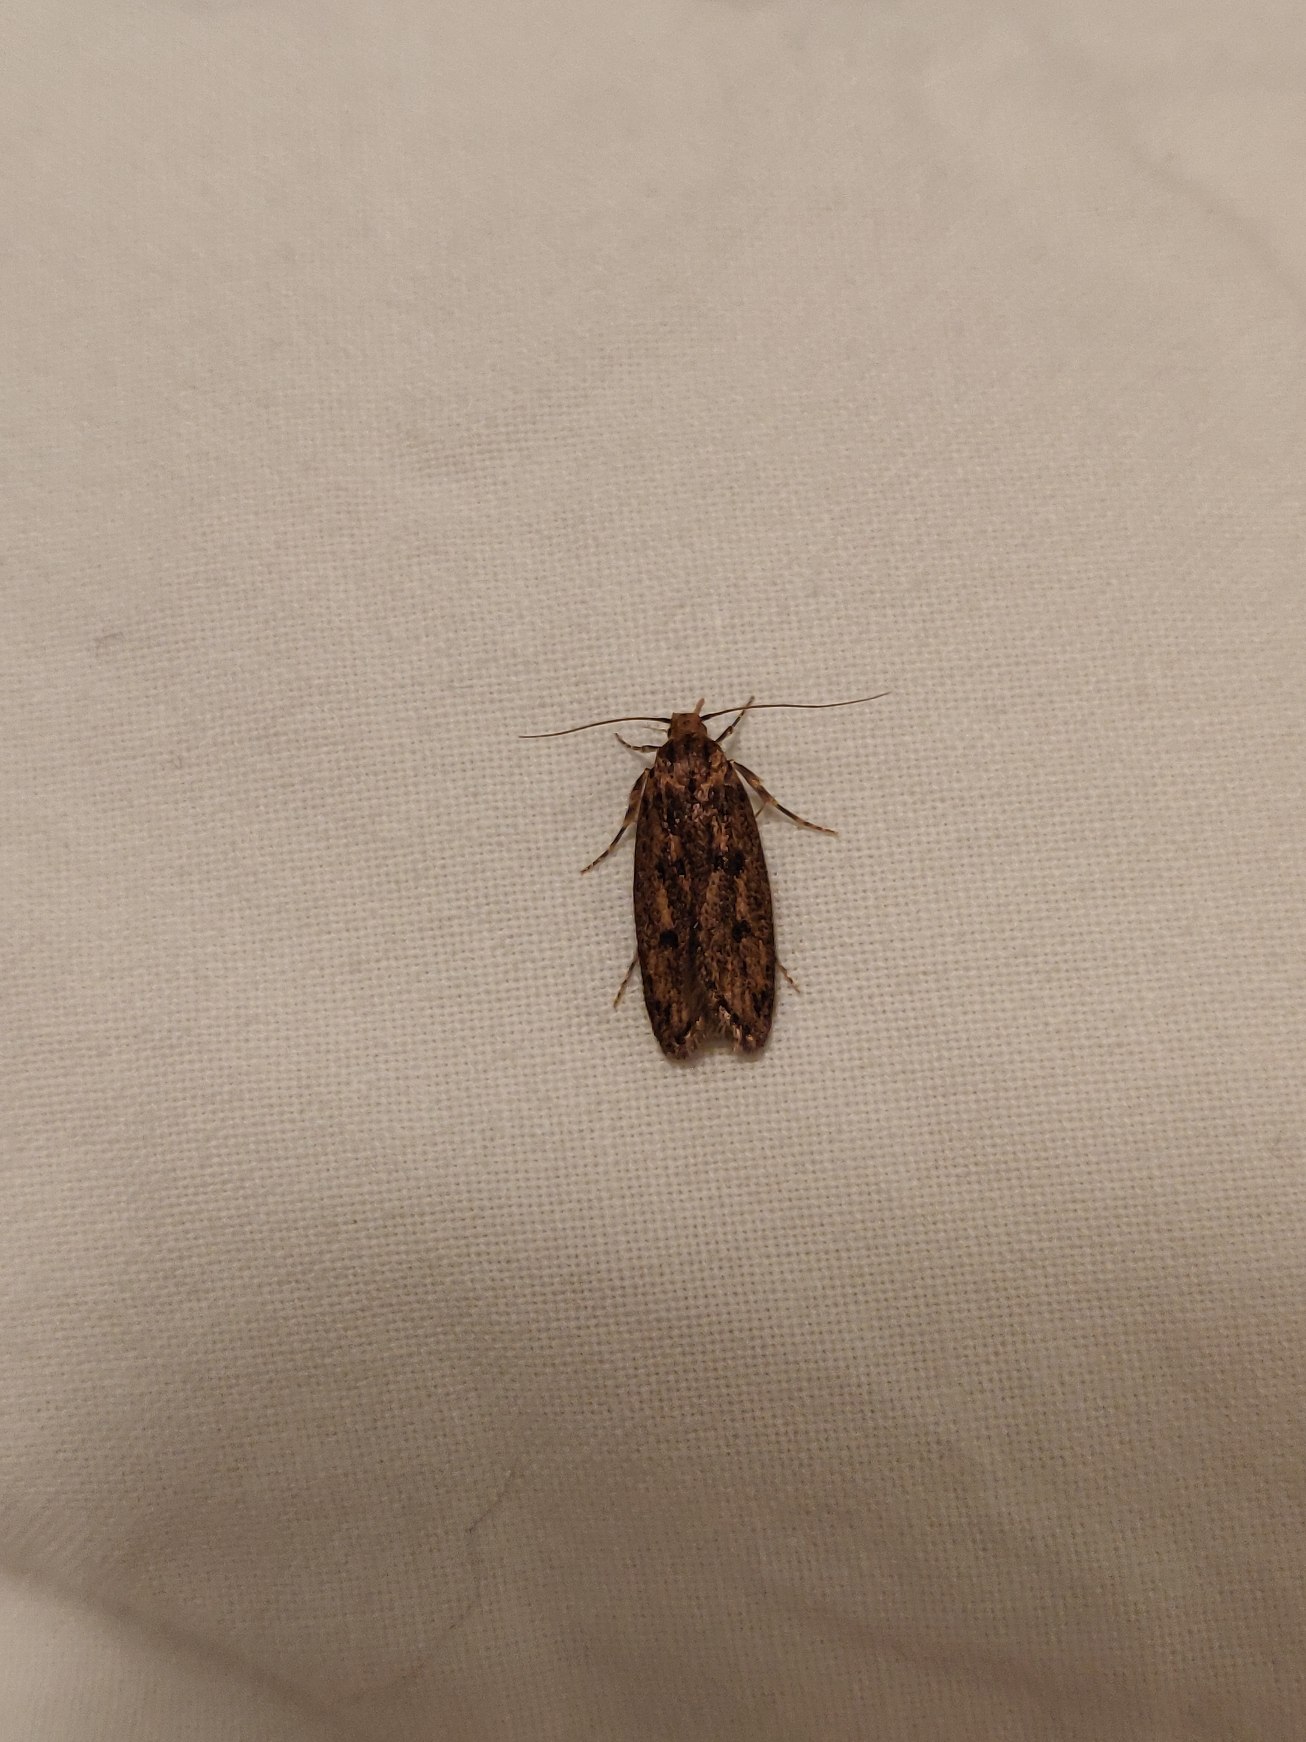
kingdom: Animalia
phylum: Arthropoda
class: Insecta
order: Lepidoptera
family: Oecophoridae
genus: Hofmannophila
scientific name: Hofmannophila pseudospretella
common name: Frømøl
